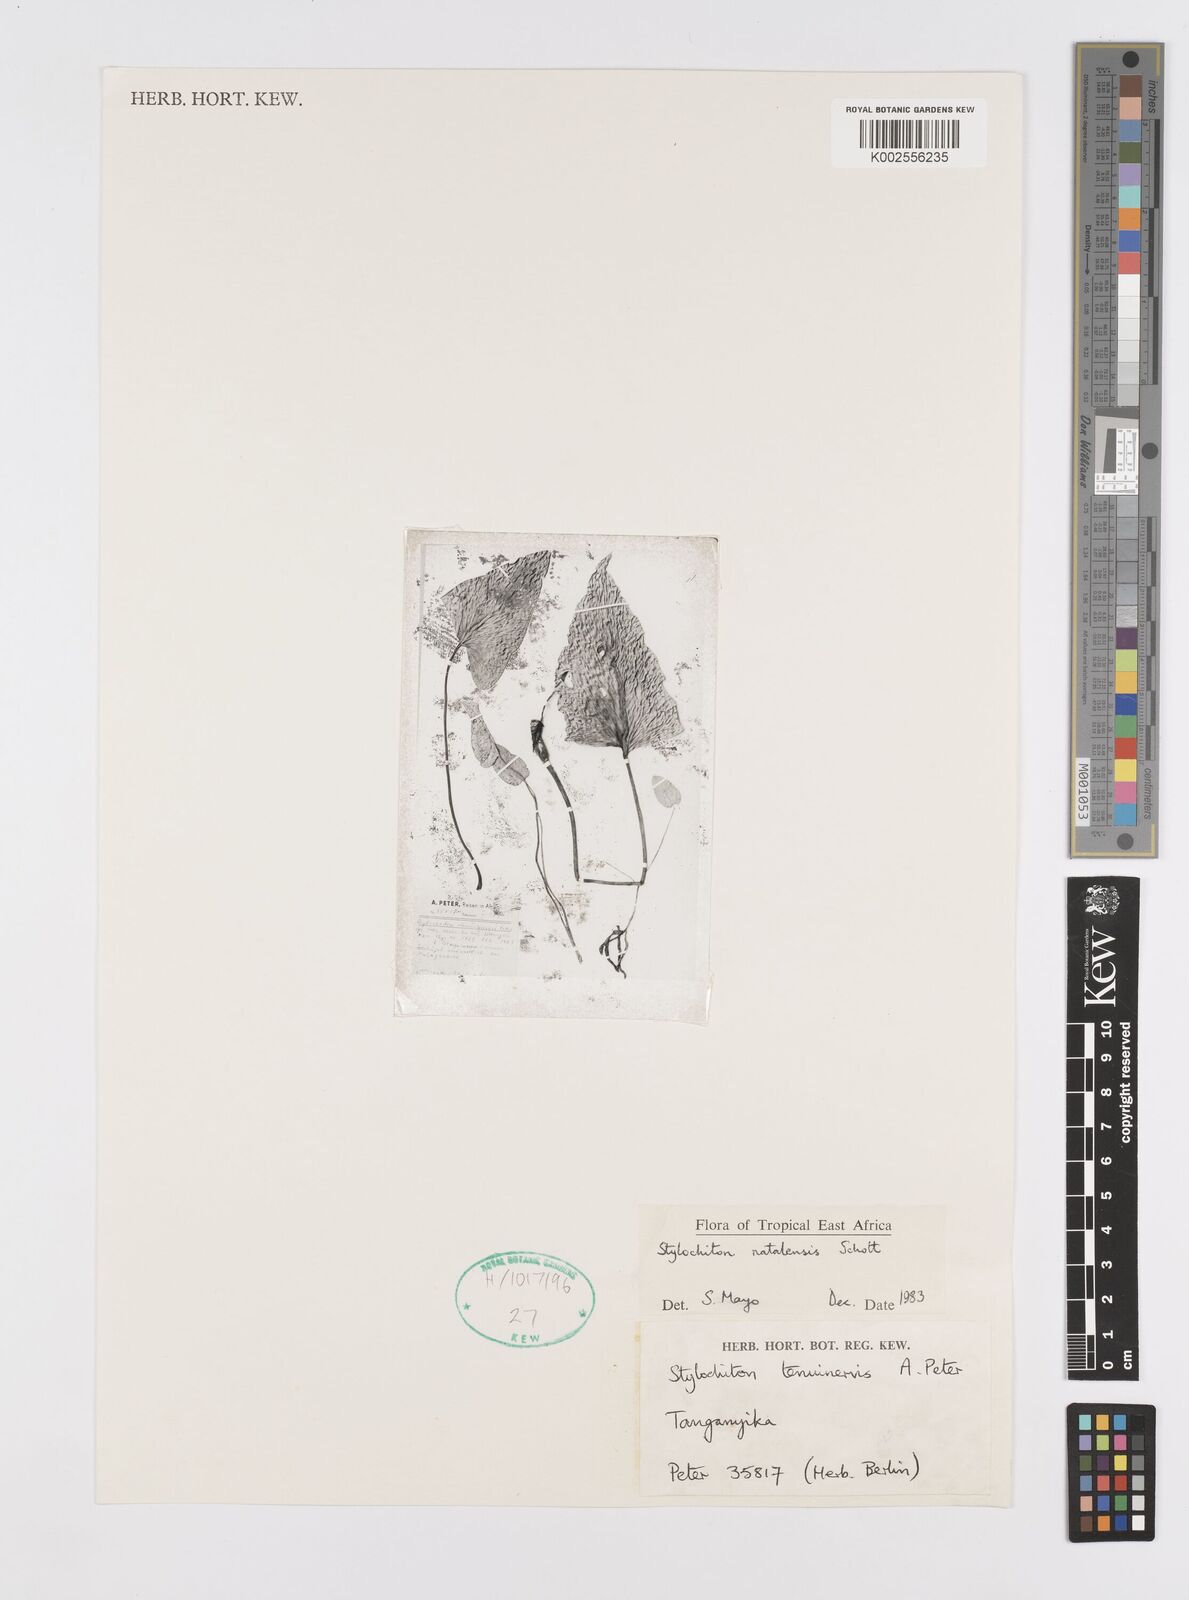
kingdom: Plantae
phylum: Tracheophyta
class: Liliopsida
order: Alismatales
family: Araceae
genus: Stylochaeton
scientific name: Stylochaeton natalense
